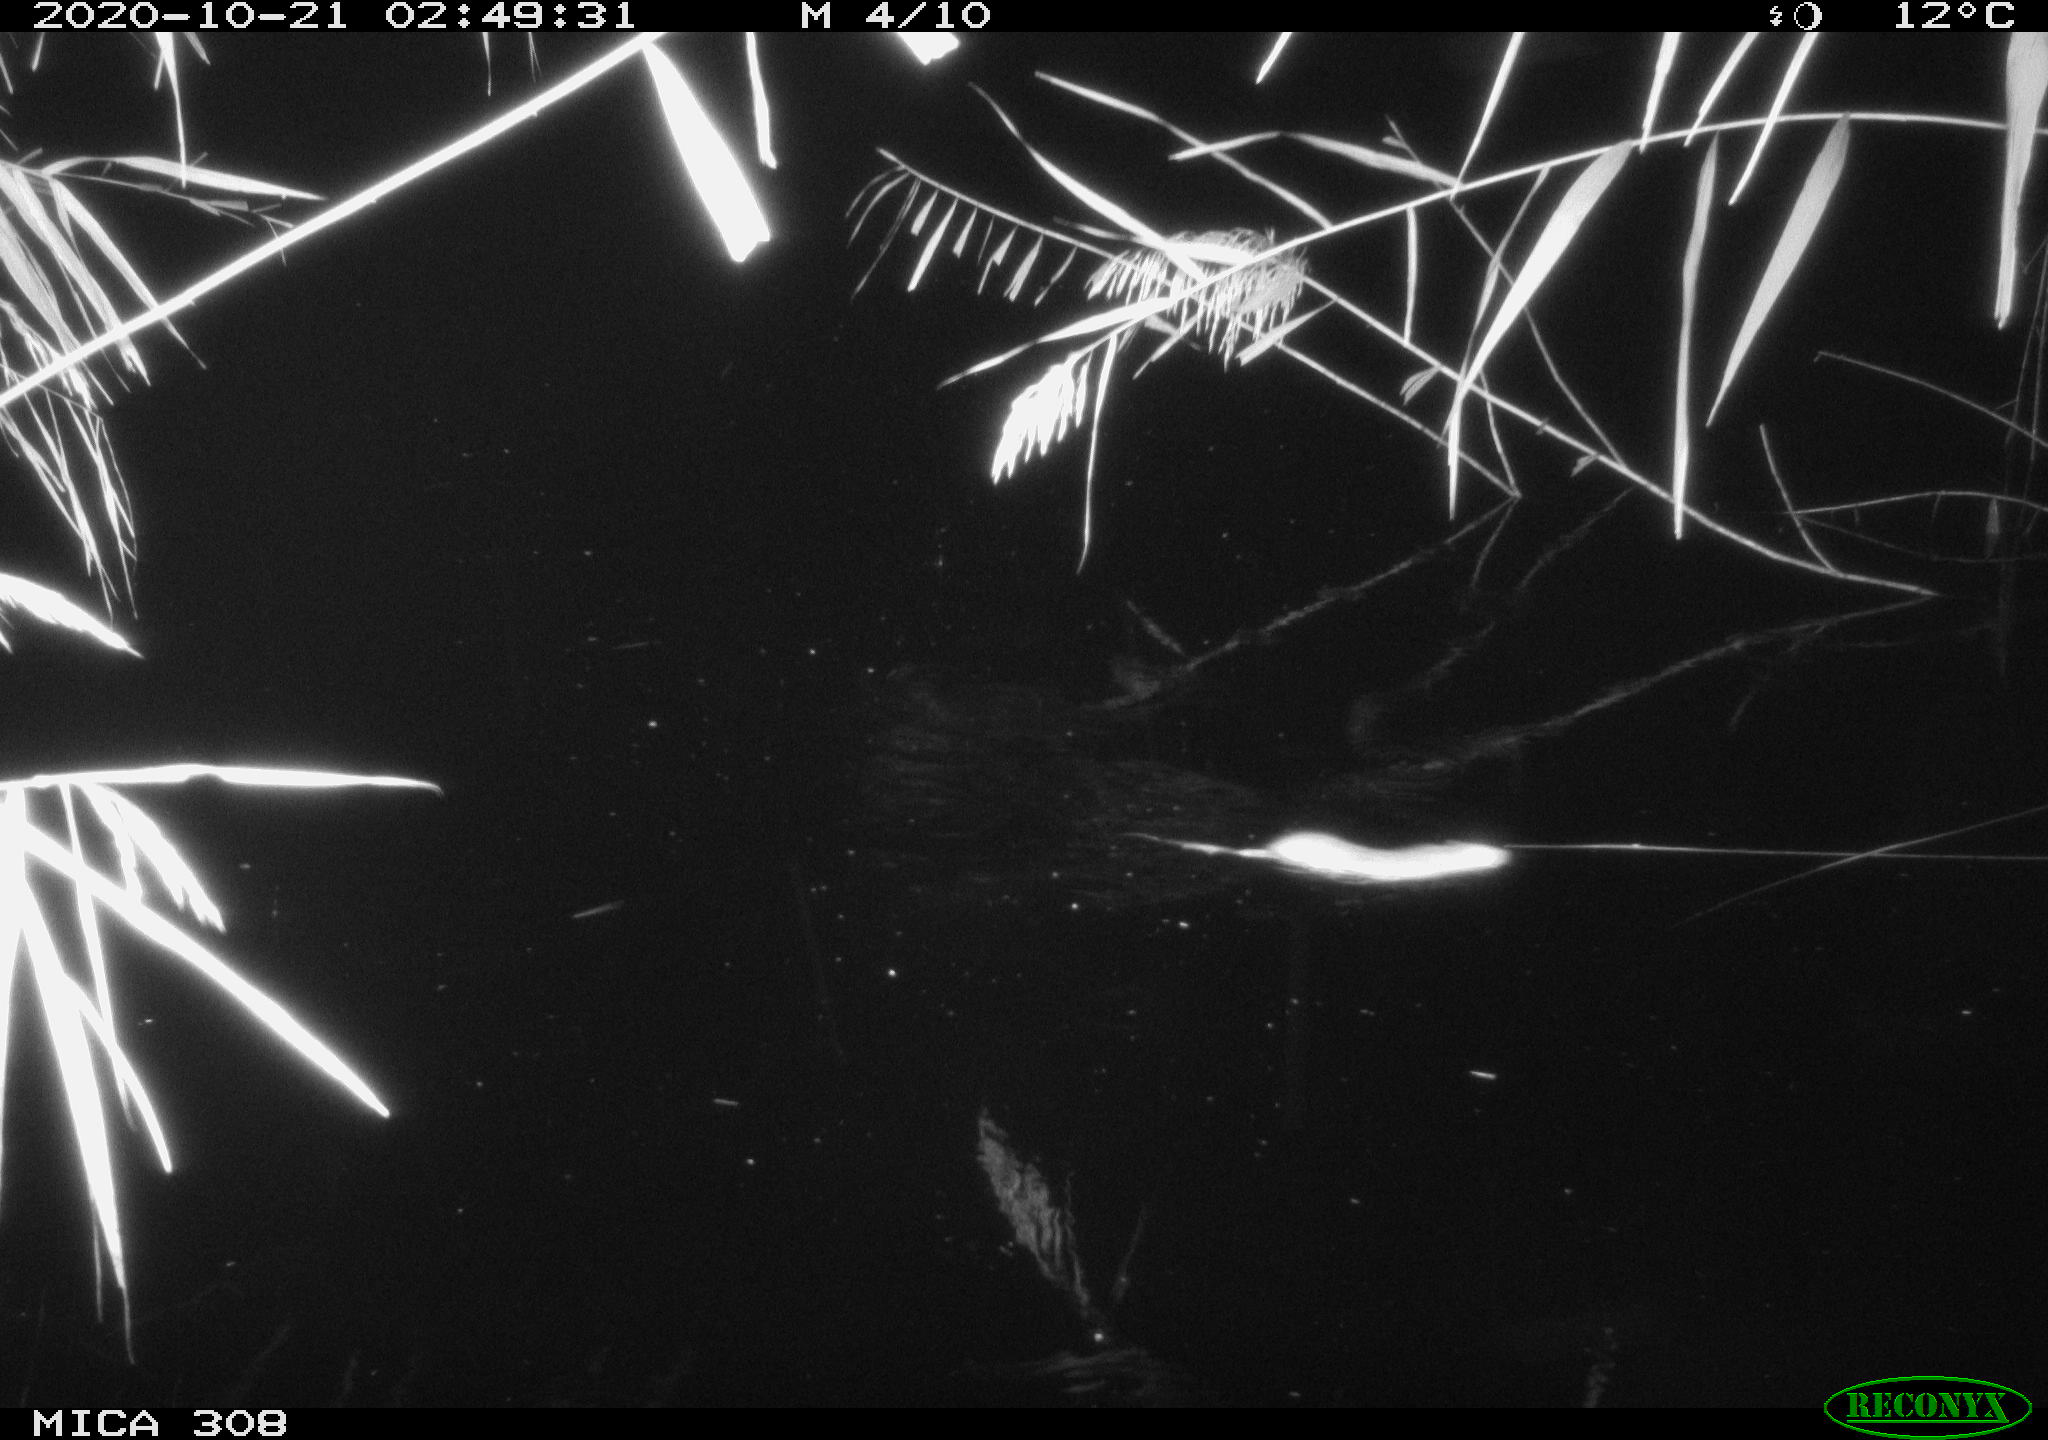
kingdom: Animalia
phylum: Chordata
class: Mammalia
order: Rodentia
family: Muridae
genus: Rattus
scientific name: Rattus norvegicus
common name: Brown rat
